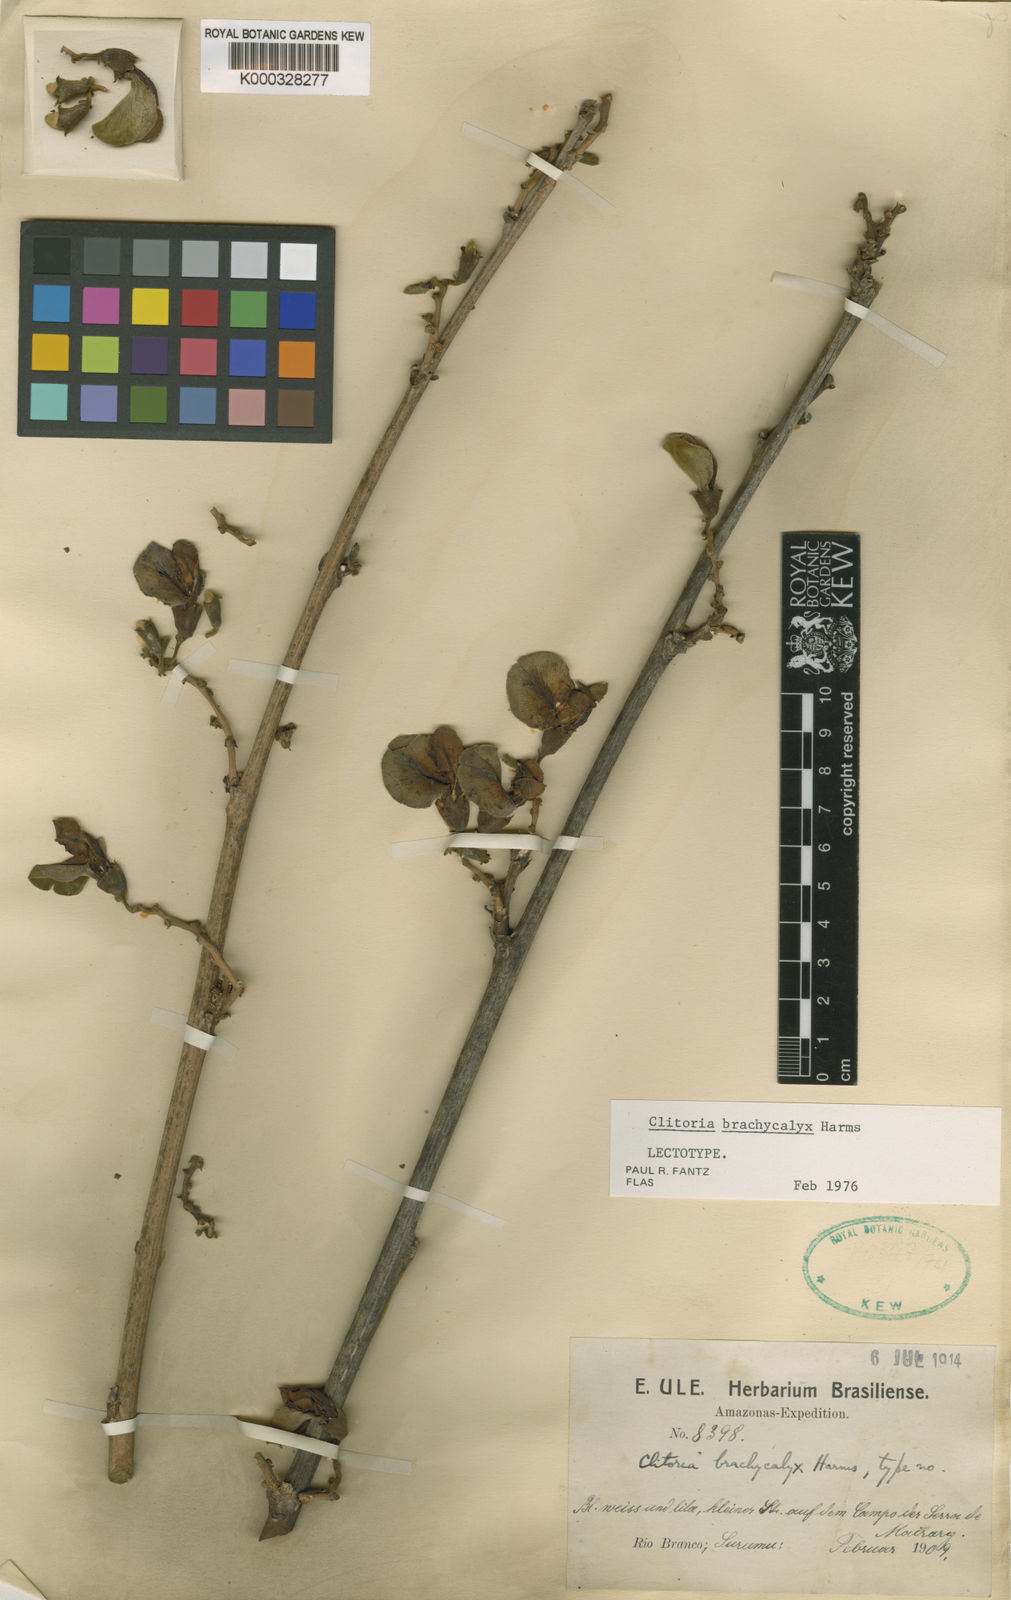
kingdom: Plantae
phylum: Tracheophyta
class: Magnoliopsida
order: Fabales
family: Fabaceae
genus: Clitoria
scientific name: Clitoria brachycalyx
